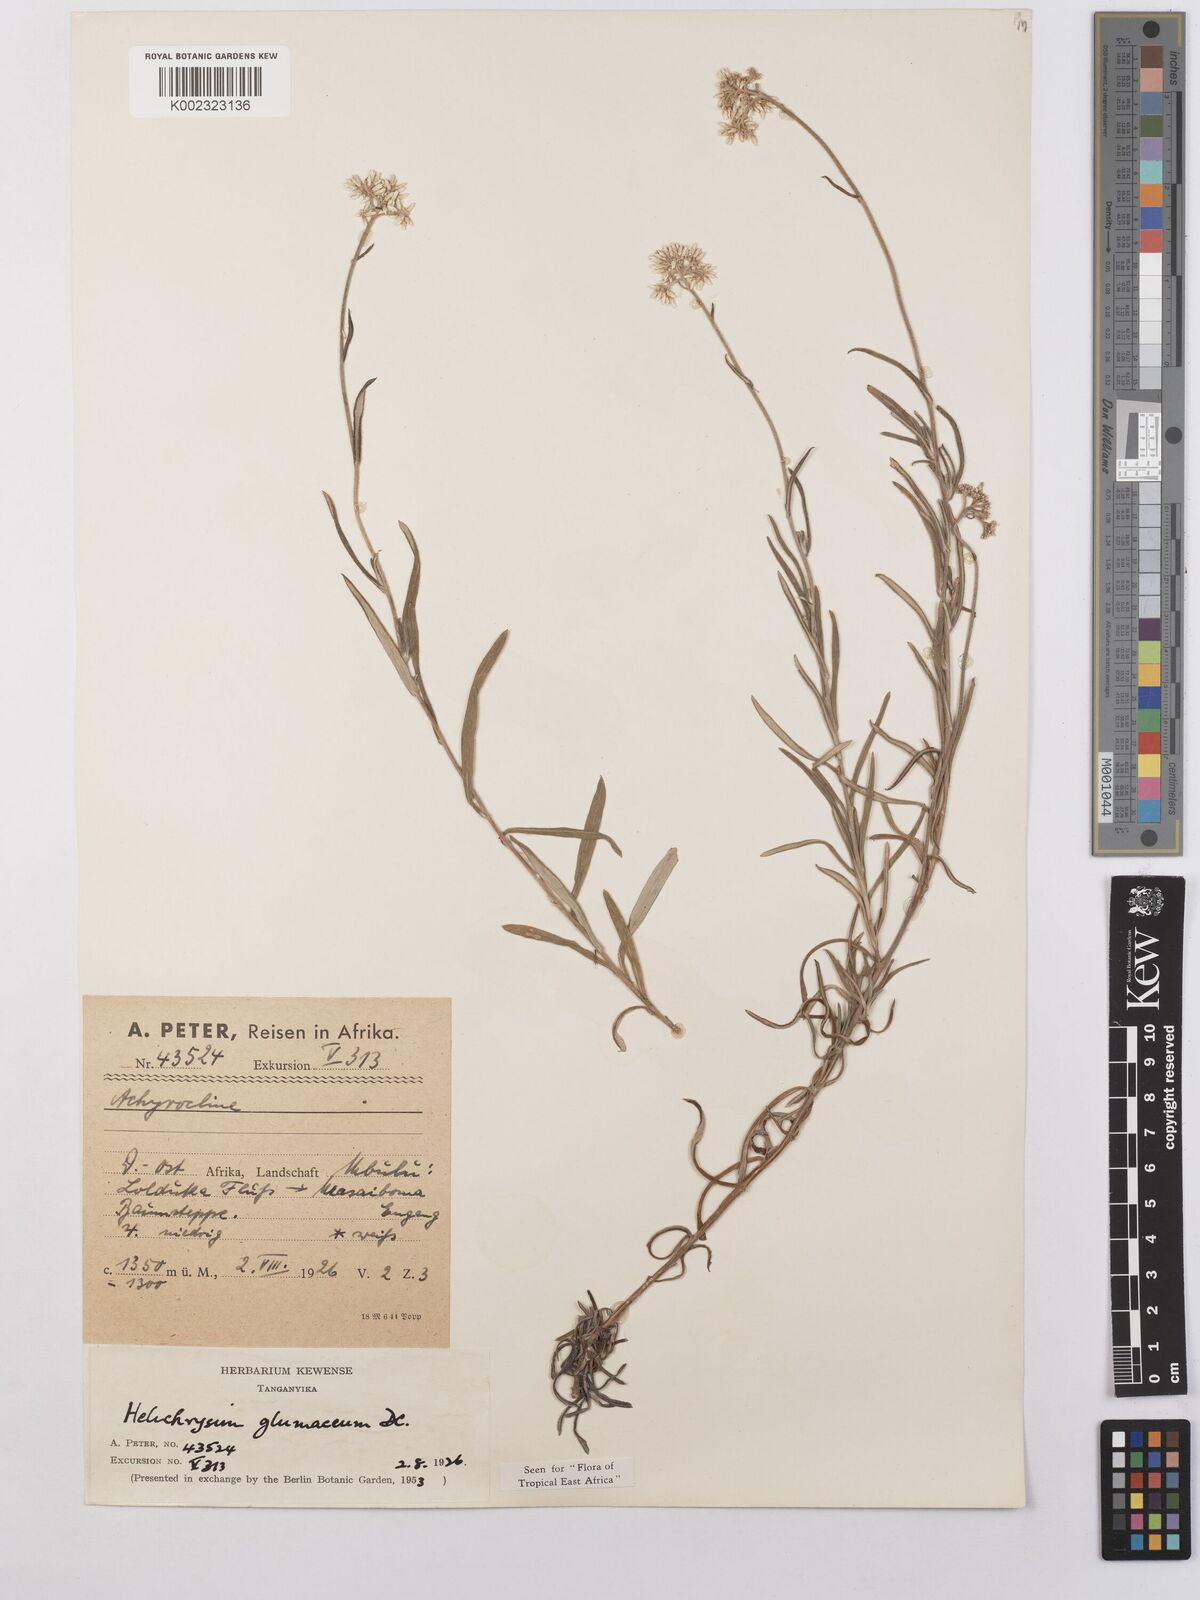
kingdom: Plantae
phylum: Tracheophyta
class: Magnoliopsida
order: Asterales
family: Asteraceae
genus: Helichrysum
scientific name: Helichrysum glumaceum
